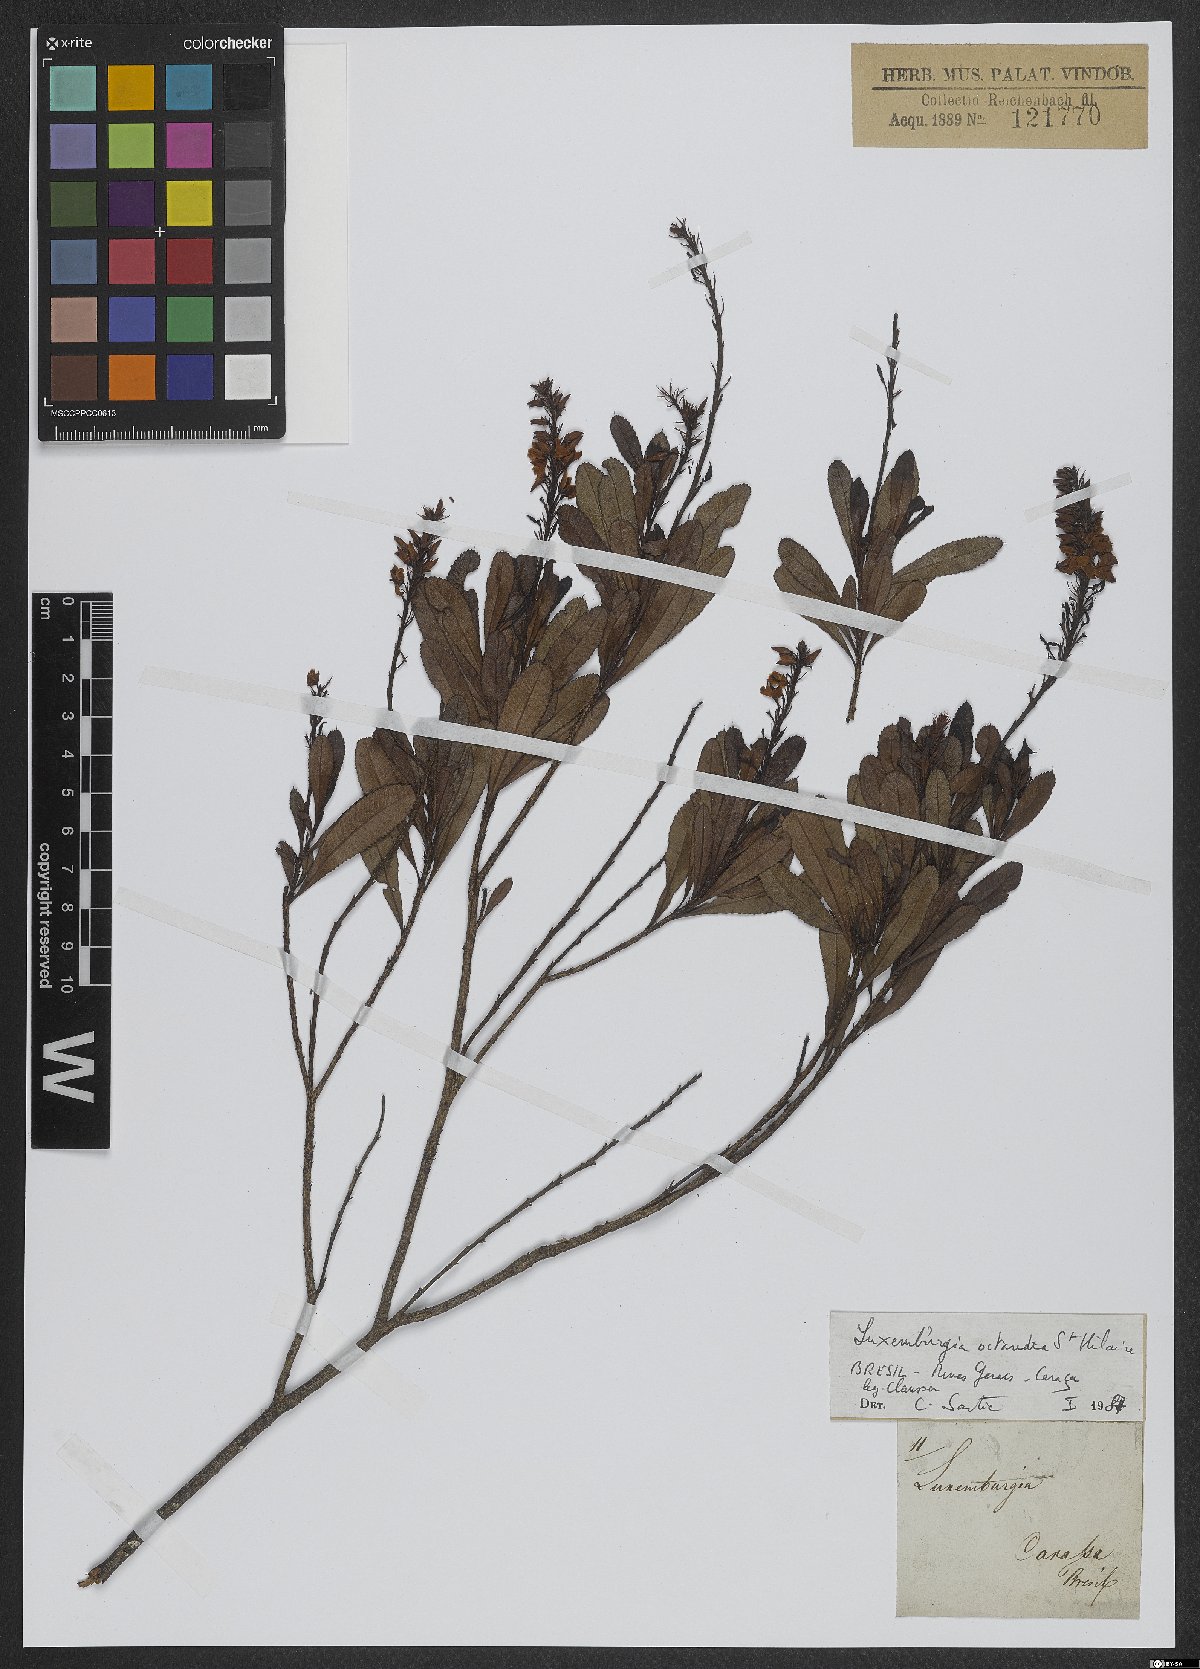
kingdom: Plantae
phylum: Tracheophyta
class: Magnoliopsida
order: Malpighiales
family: Ochnaceae
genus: Luxemburgia
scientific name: Luxemburgia octandra
